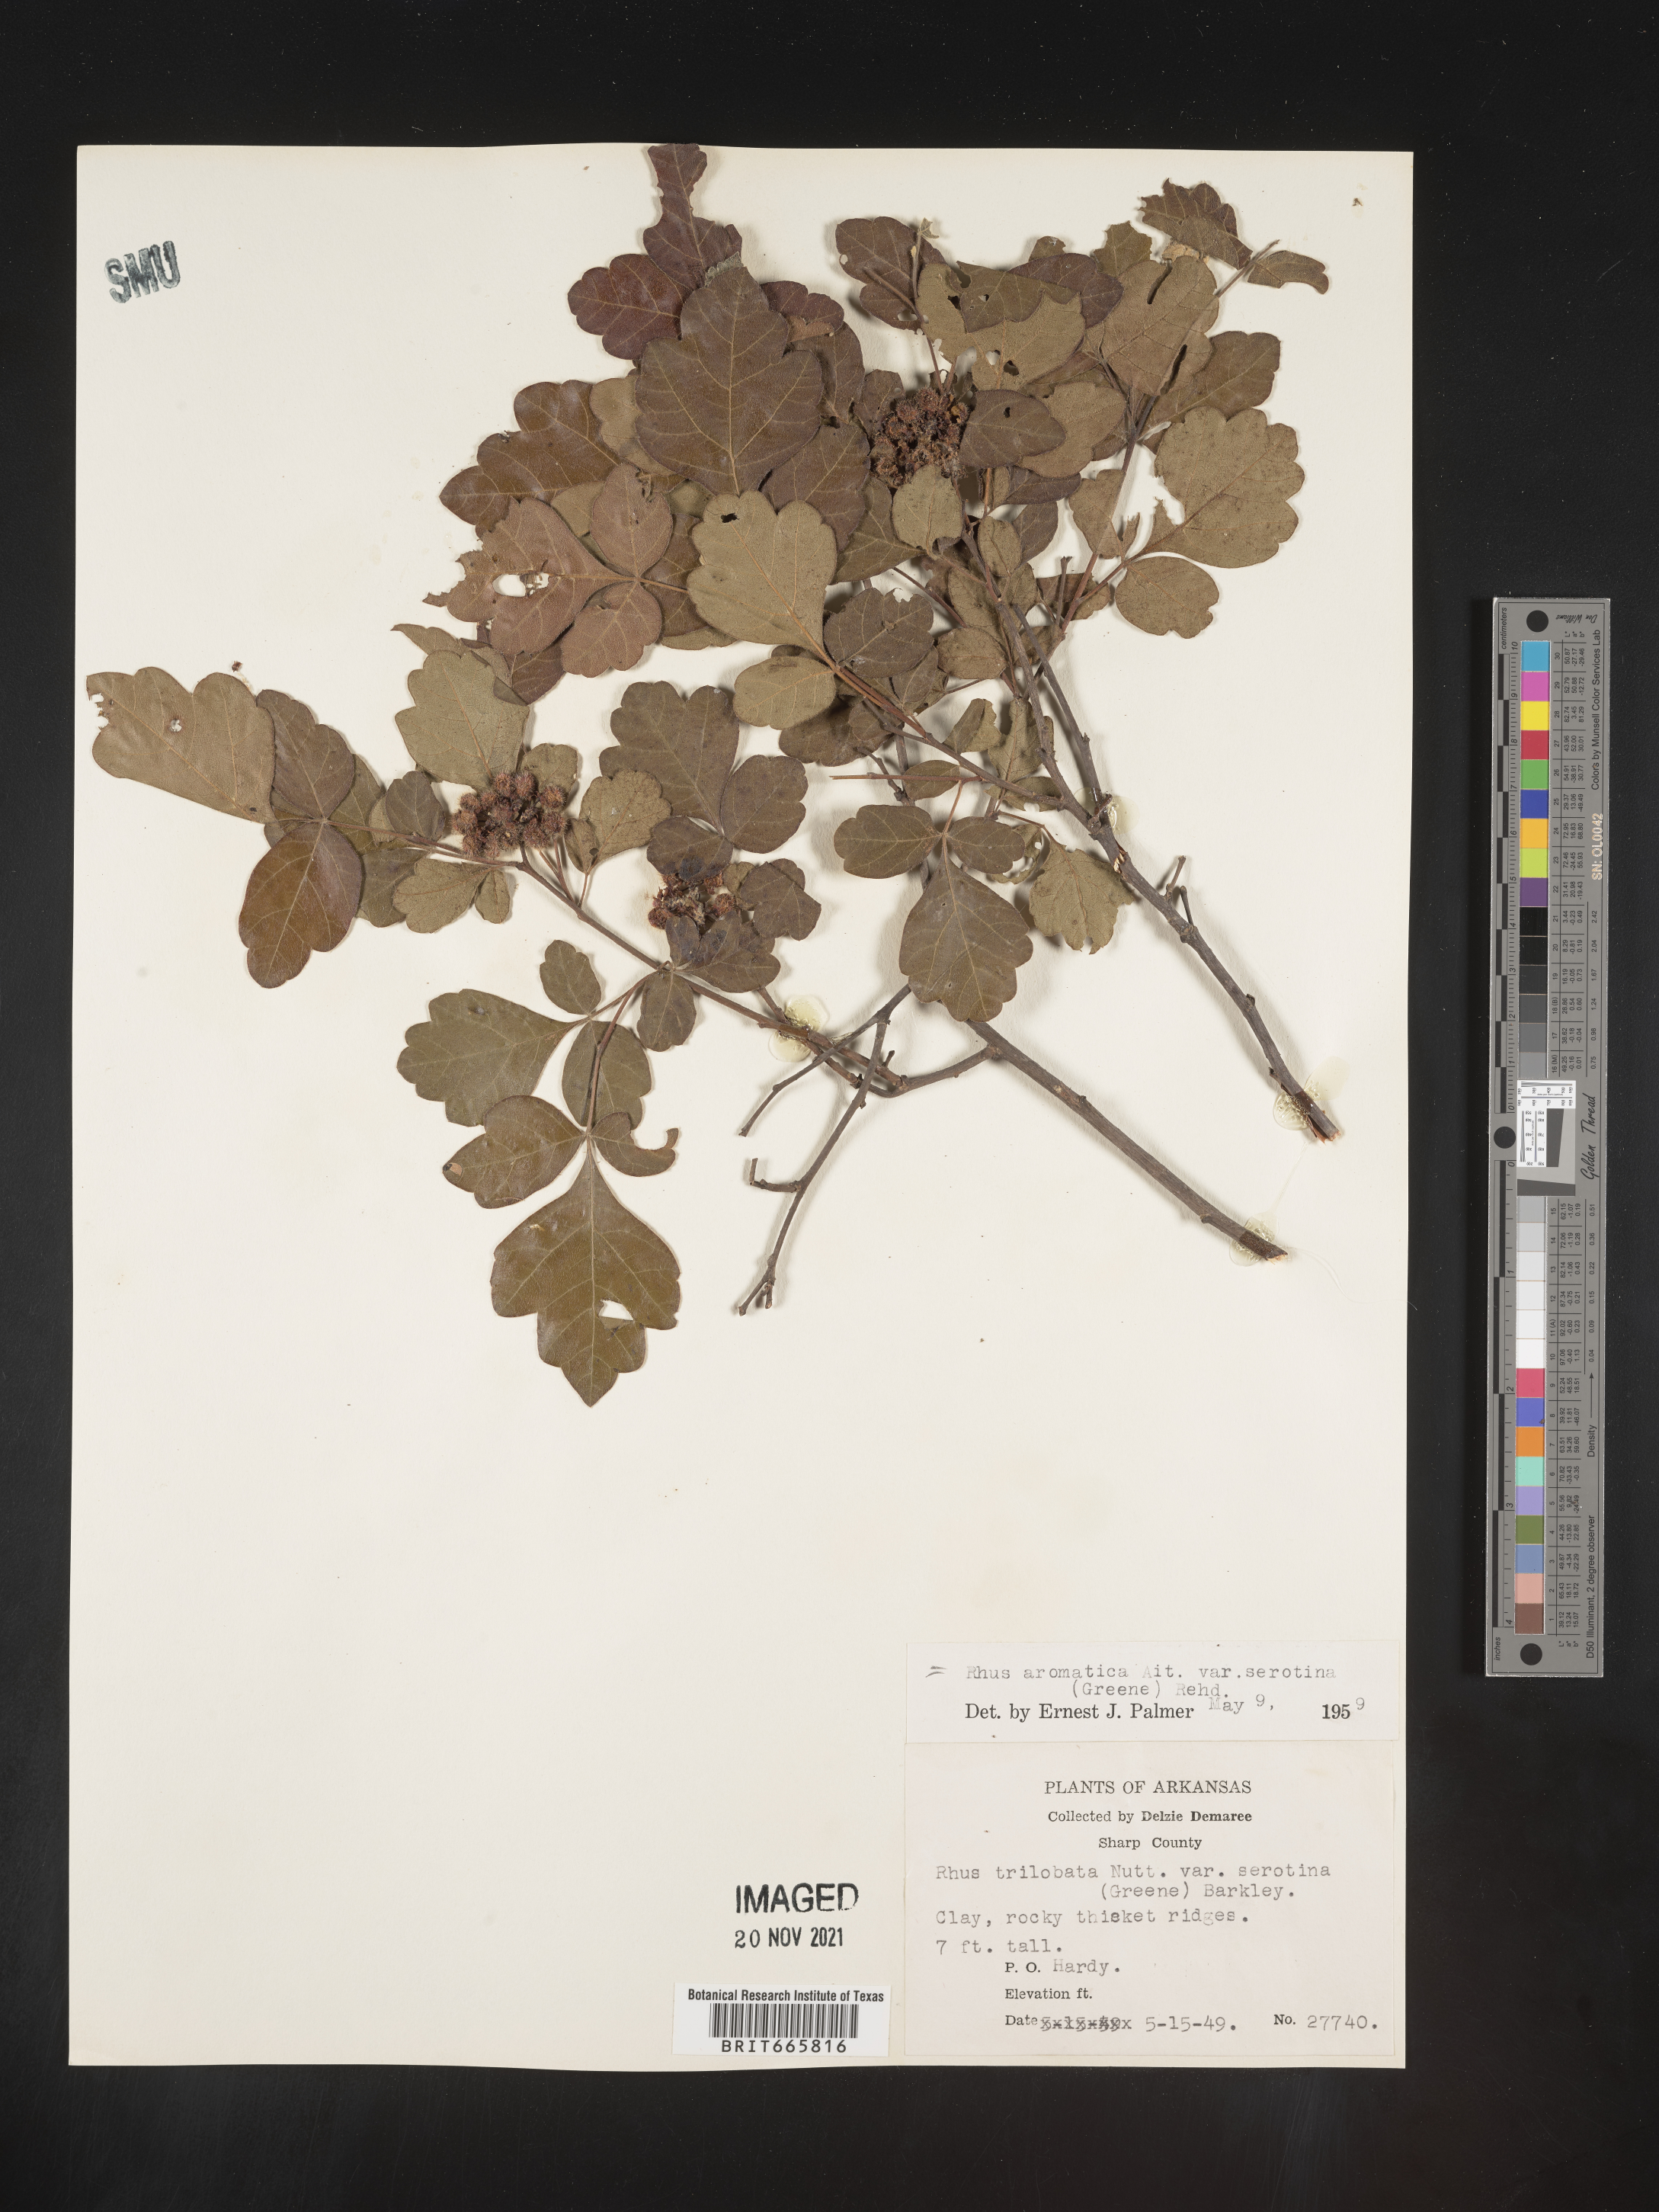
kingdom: Plantae
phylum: Tracheophyta
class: Magnoliopsida
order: Sapindales
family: Anacardiaceae
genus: Rhus
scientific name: Rhus aromatica
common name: Aromatic sumac
